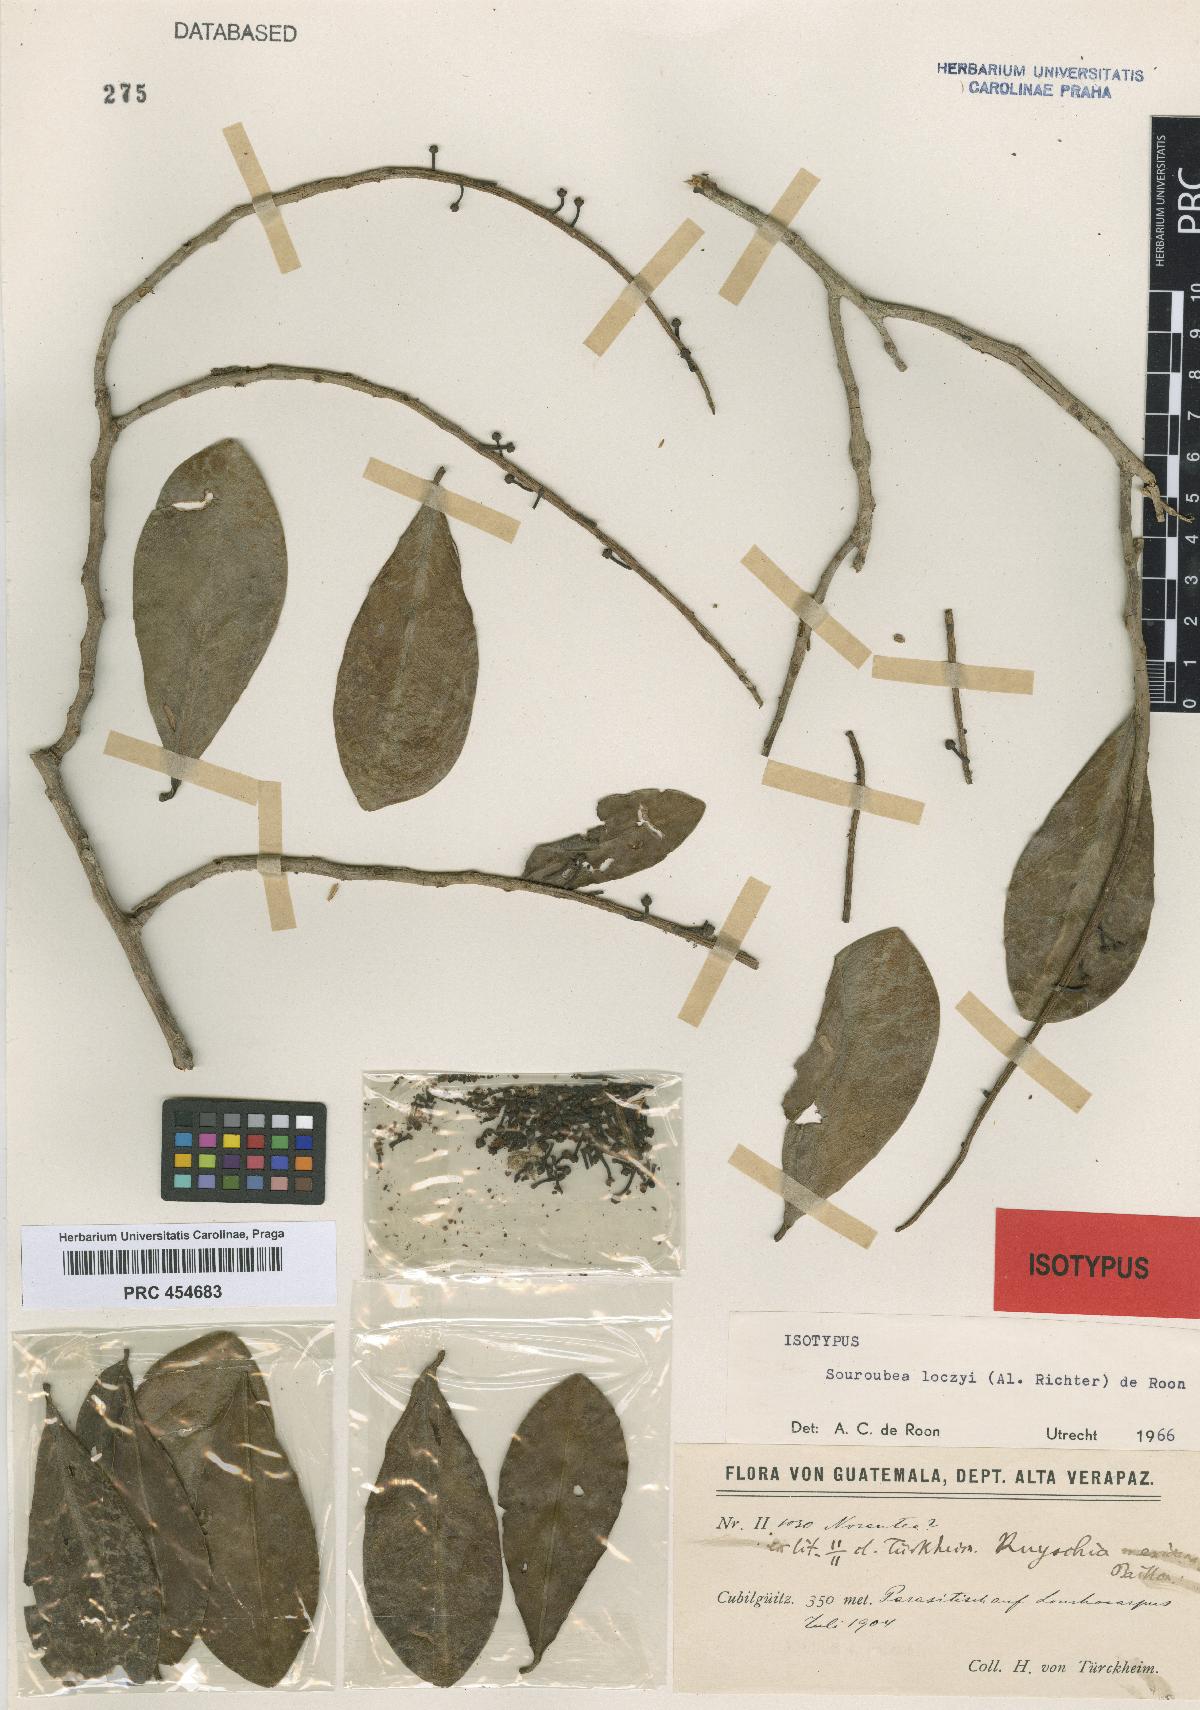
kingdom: Plantae
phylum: Tracheophyta
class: Magnoliopsida
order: Ericales
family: Marcgraviaceae
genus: Souroubea
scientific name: Souroubea loczyi
